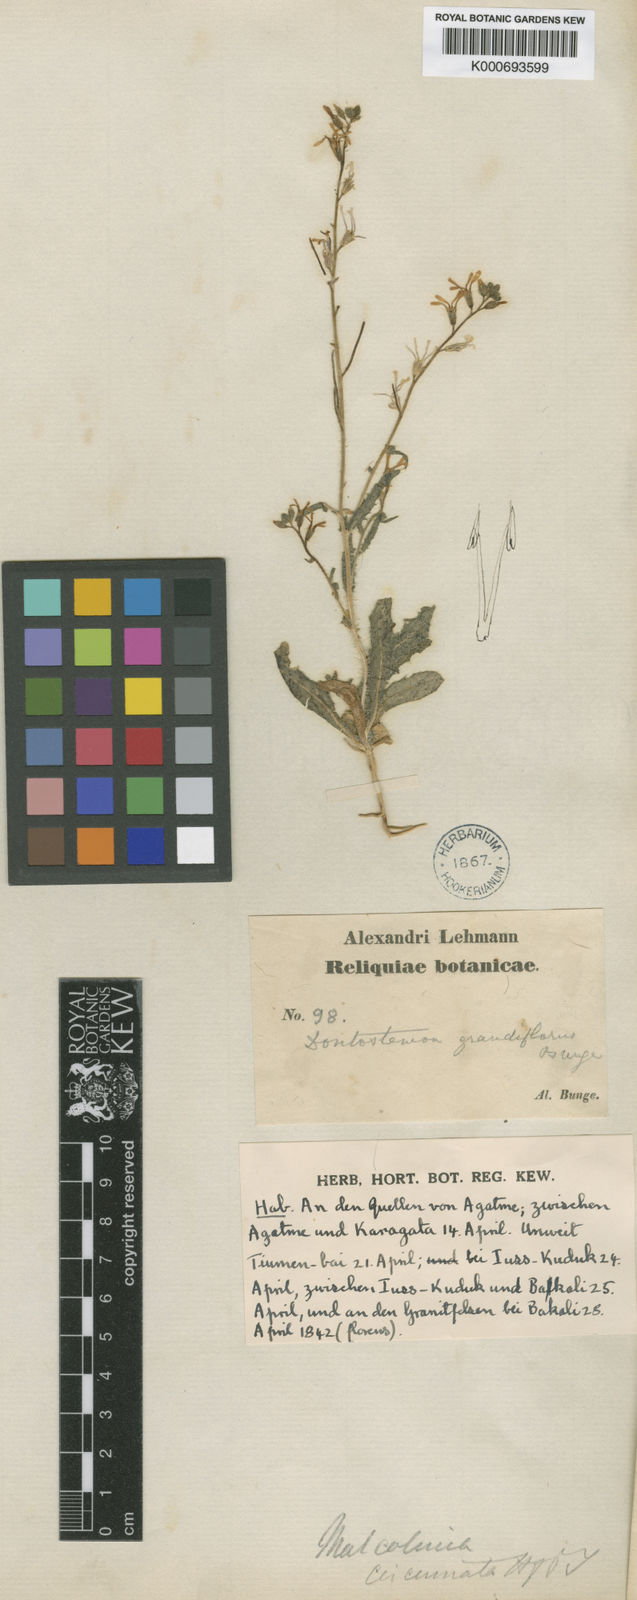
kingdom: Plantae
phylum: Tracheophyta
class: Magnoliopsida
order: Brassicales
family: Brassicaceae
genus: Strigosella
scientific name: Strigosella grandiflora
